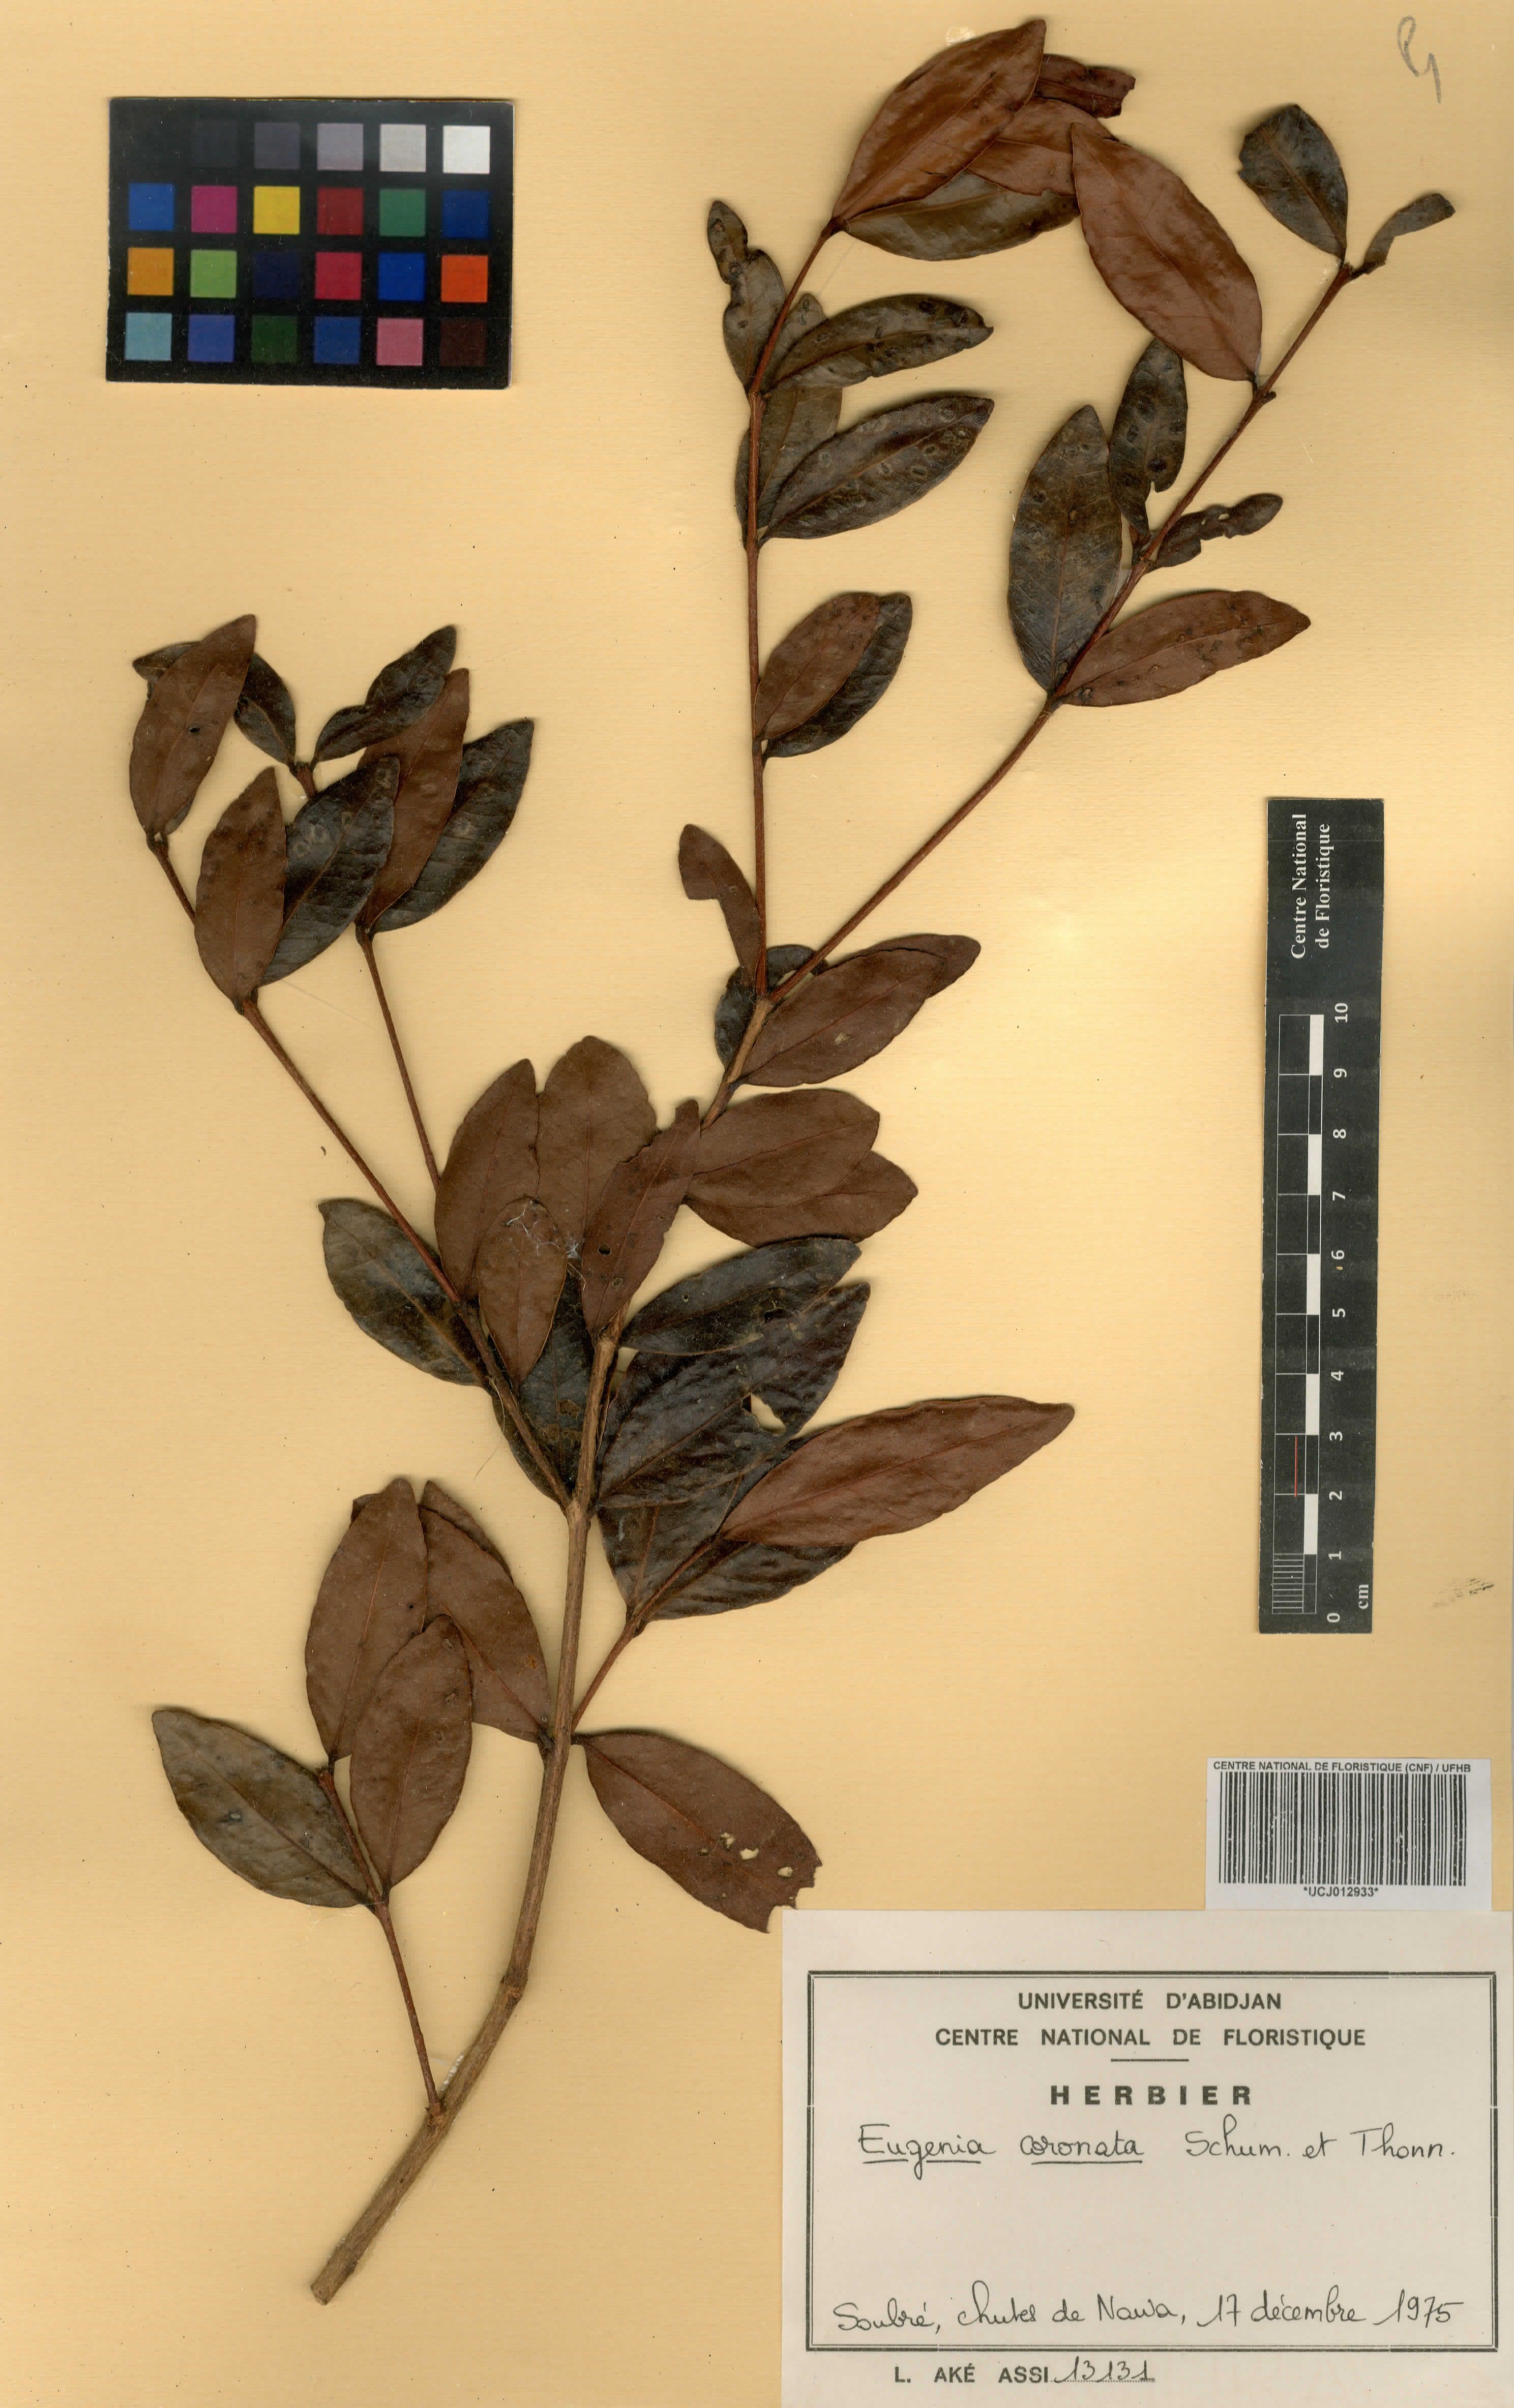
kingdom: Plantae
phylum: Tracheophyta
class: Magnoliopsida
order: Myrtales
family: Myrtaceae
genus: Eugenia
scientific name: Eugenia coronata
